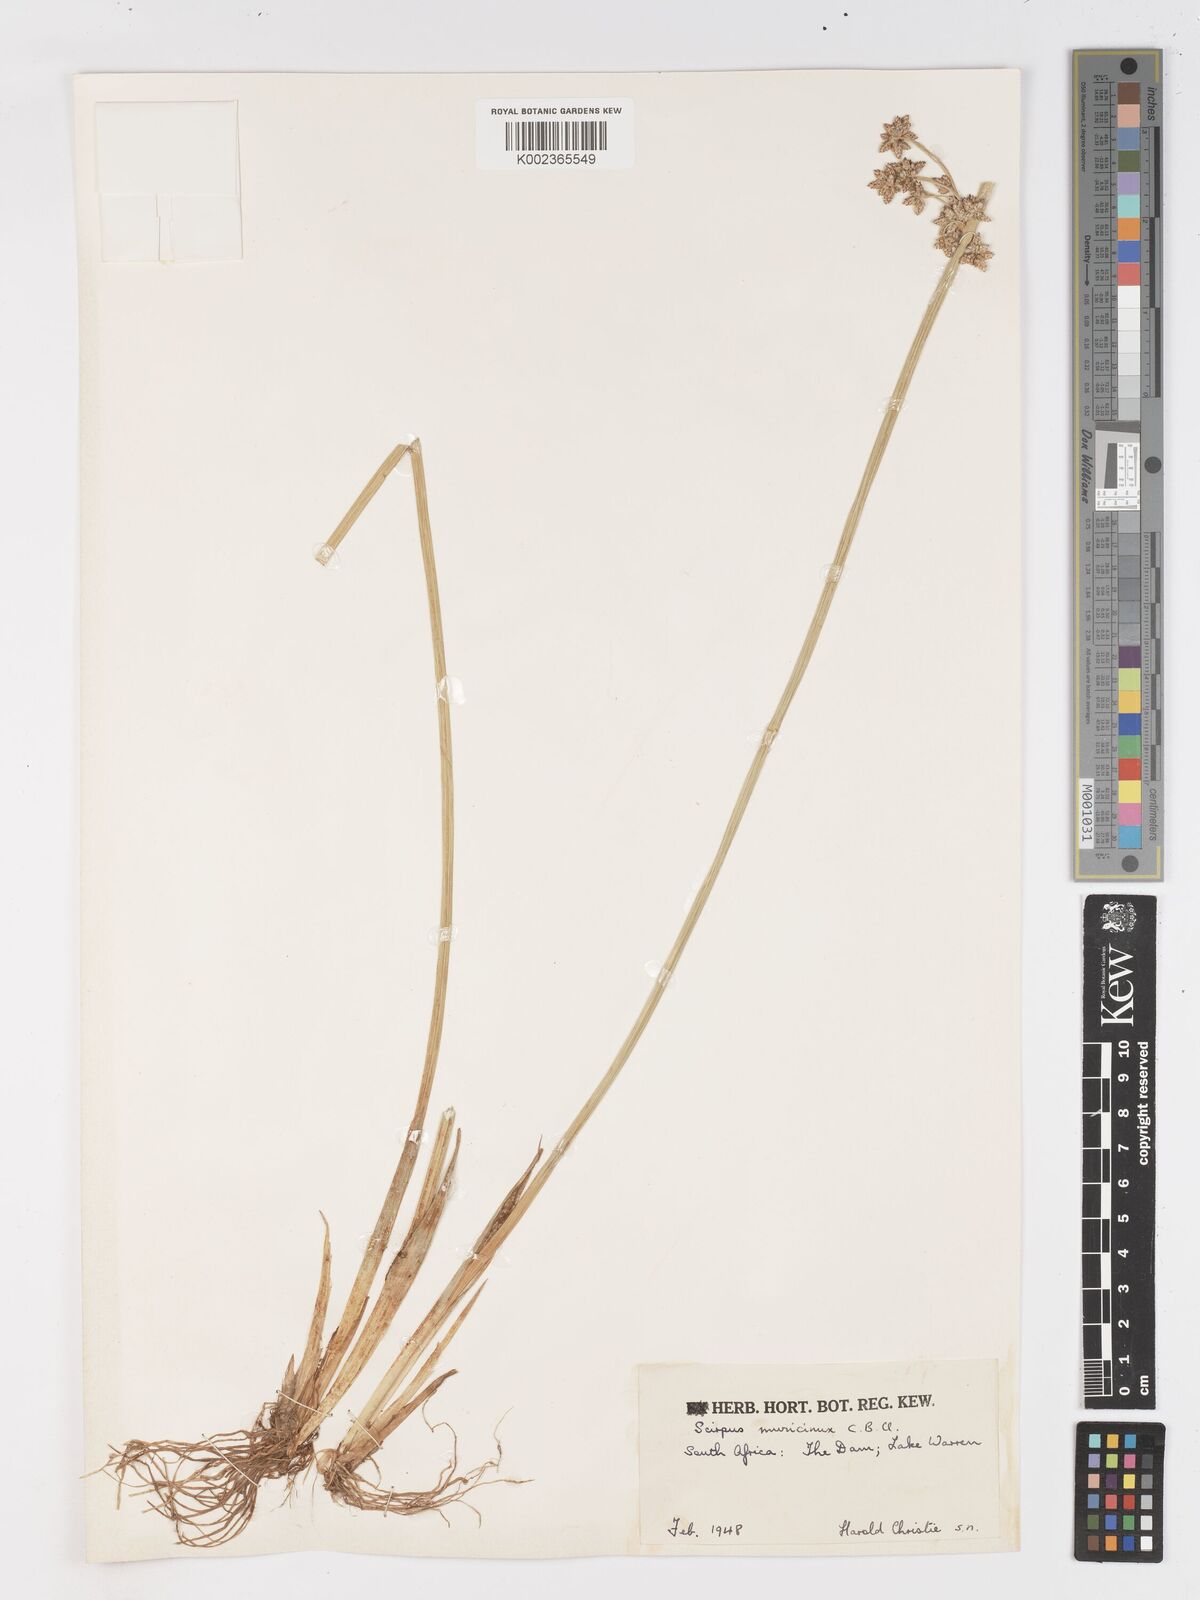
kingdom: Plantae
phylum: Tracheophyta
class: Liliopsida
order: Poales
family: Cyperaceae
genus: Schoenoplectiella
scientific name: Schoenoplectiella muricinux
